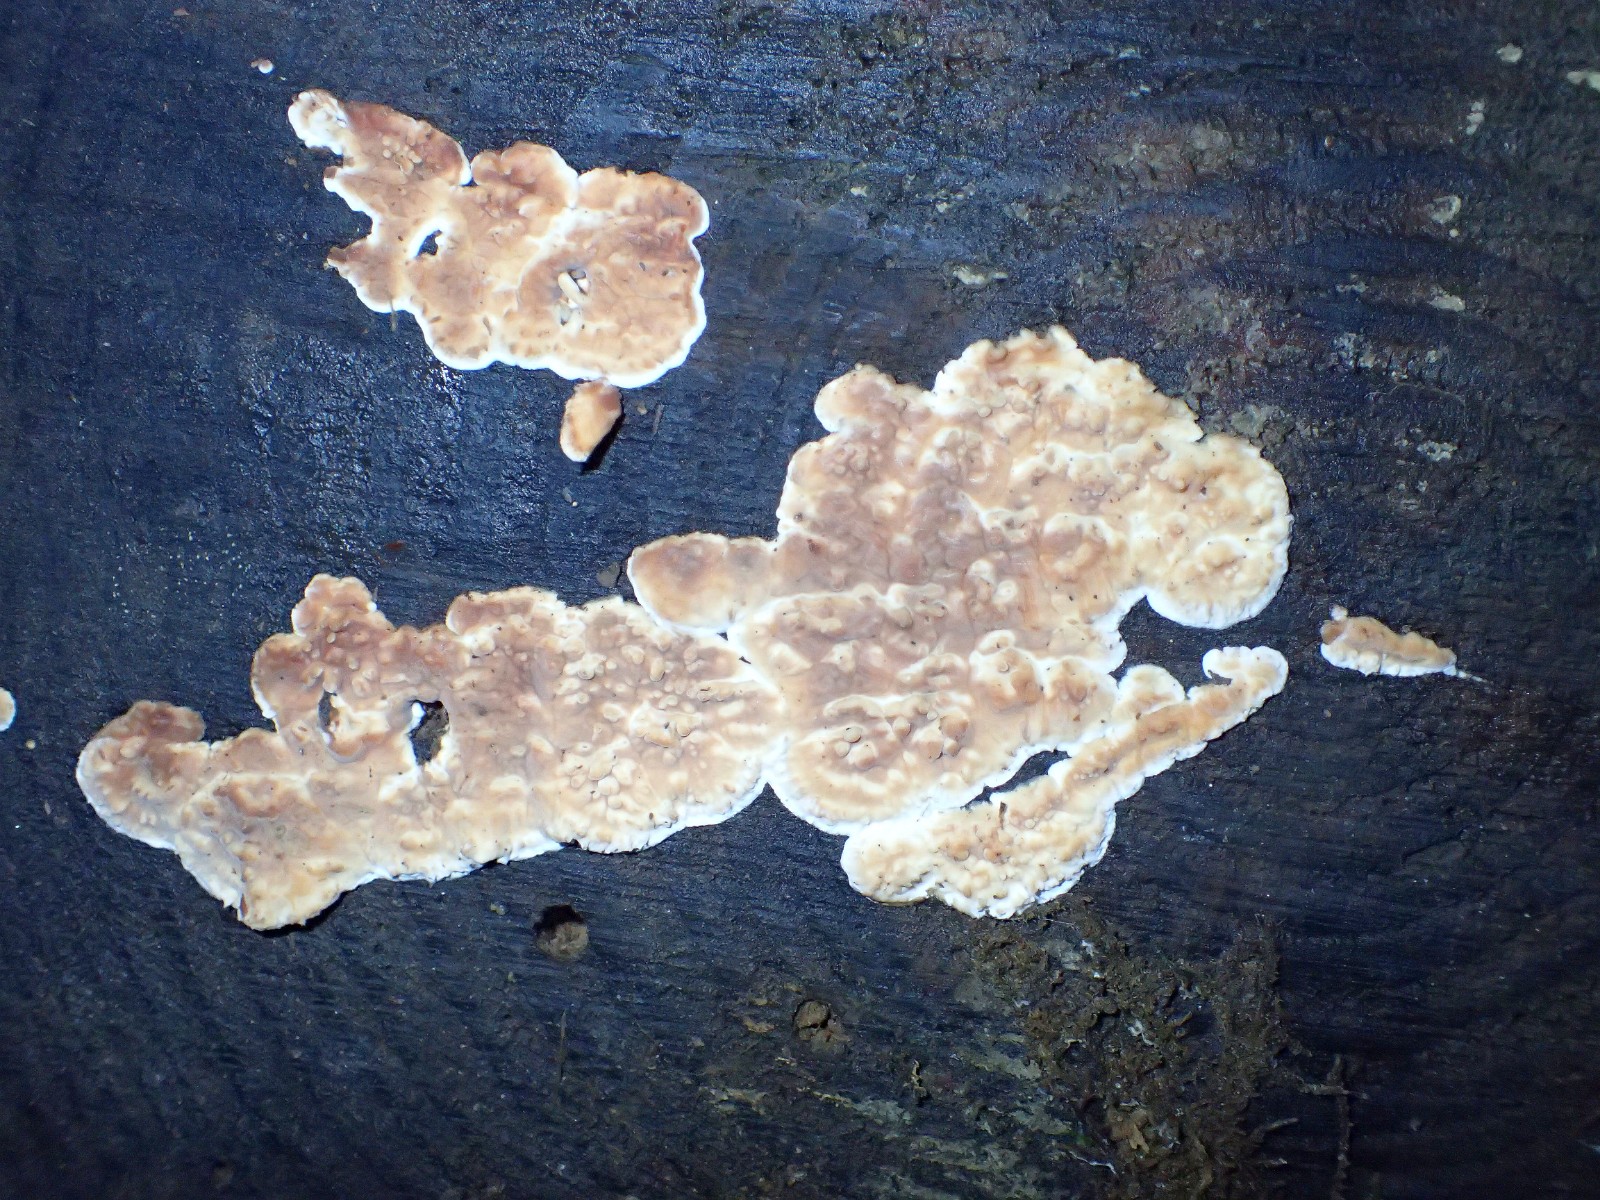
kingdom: Fungi
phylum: Basidiomycota
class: Agaricomycetes
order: Corticiales
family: Corticiaceae
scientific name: Corticiaceae
